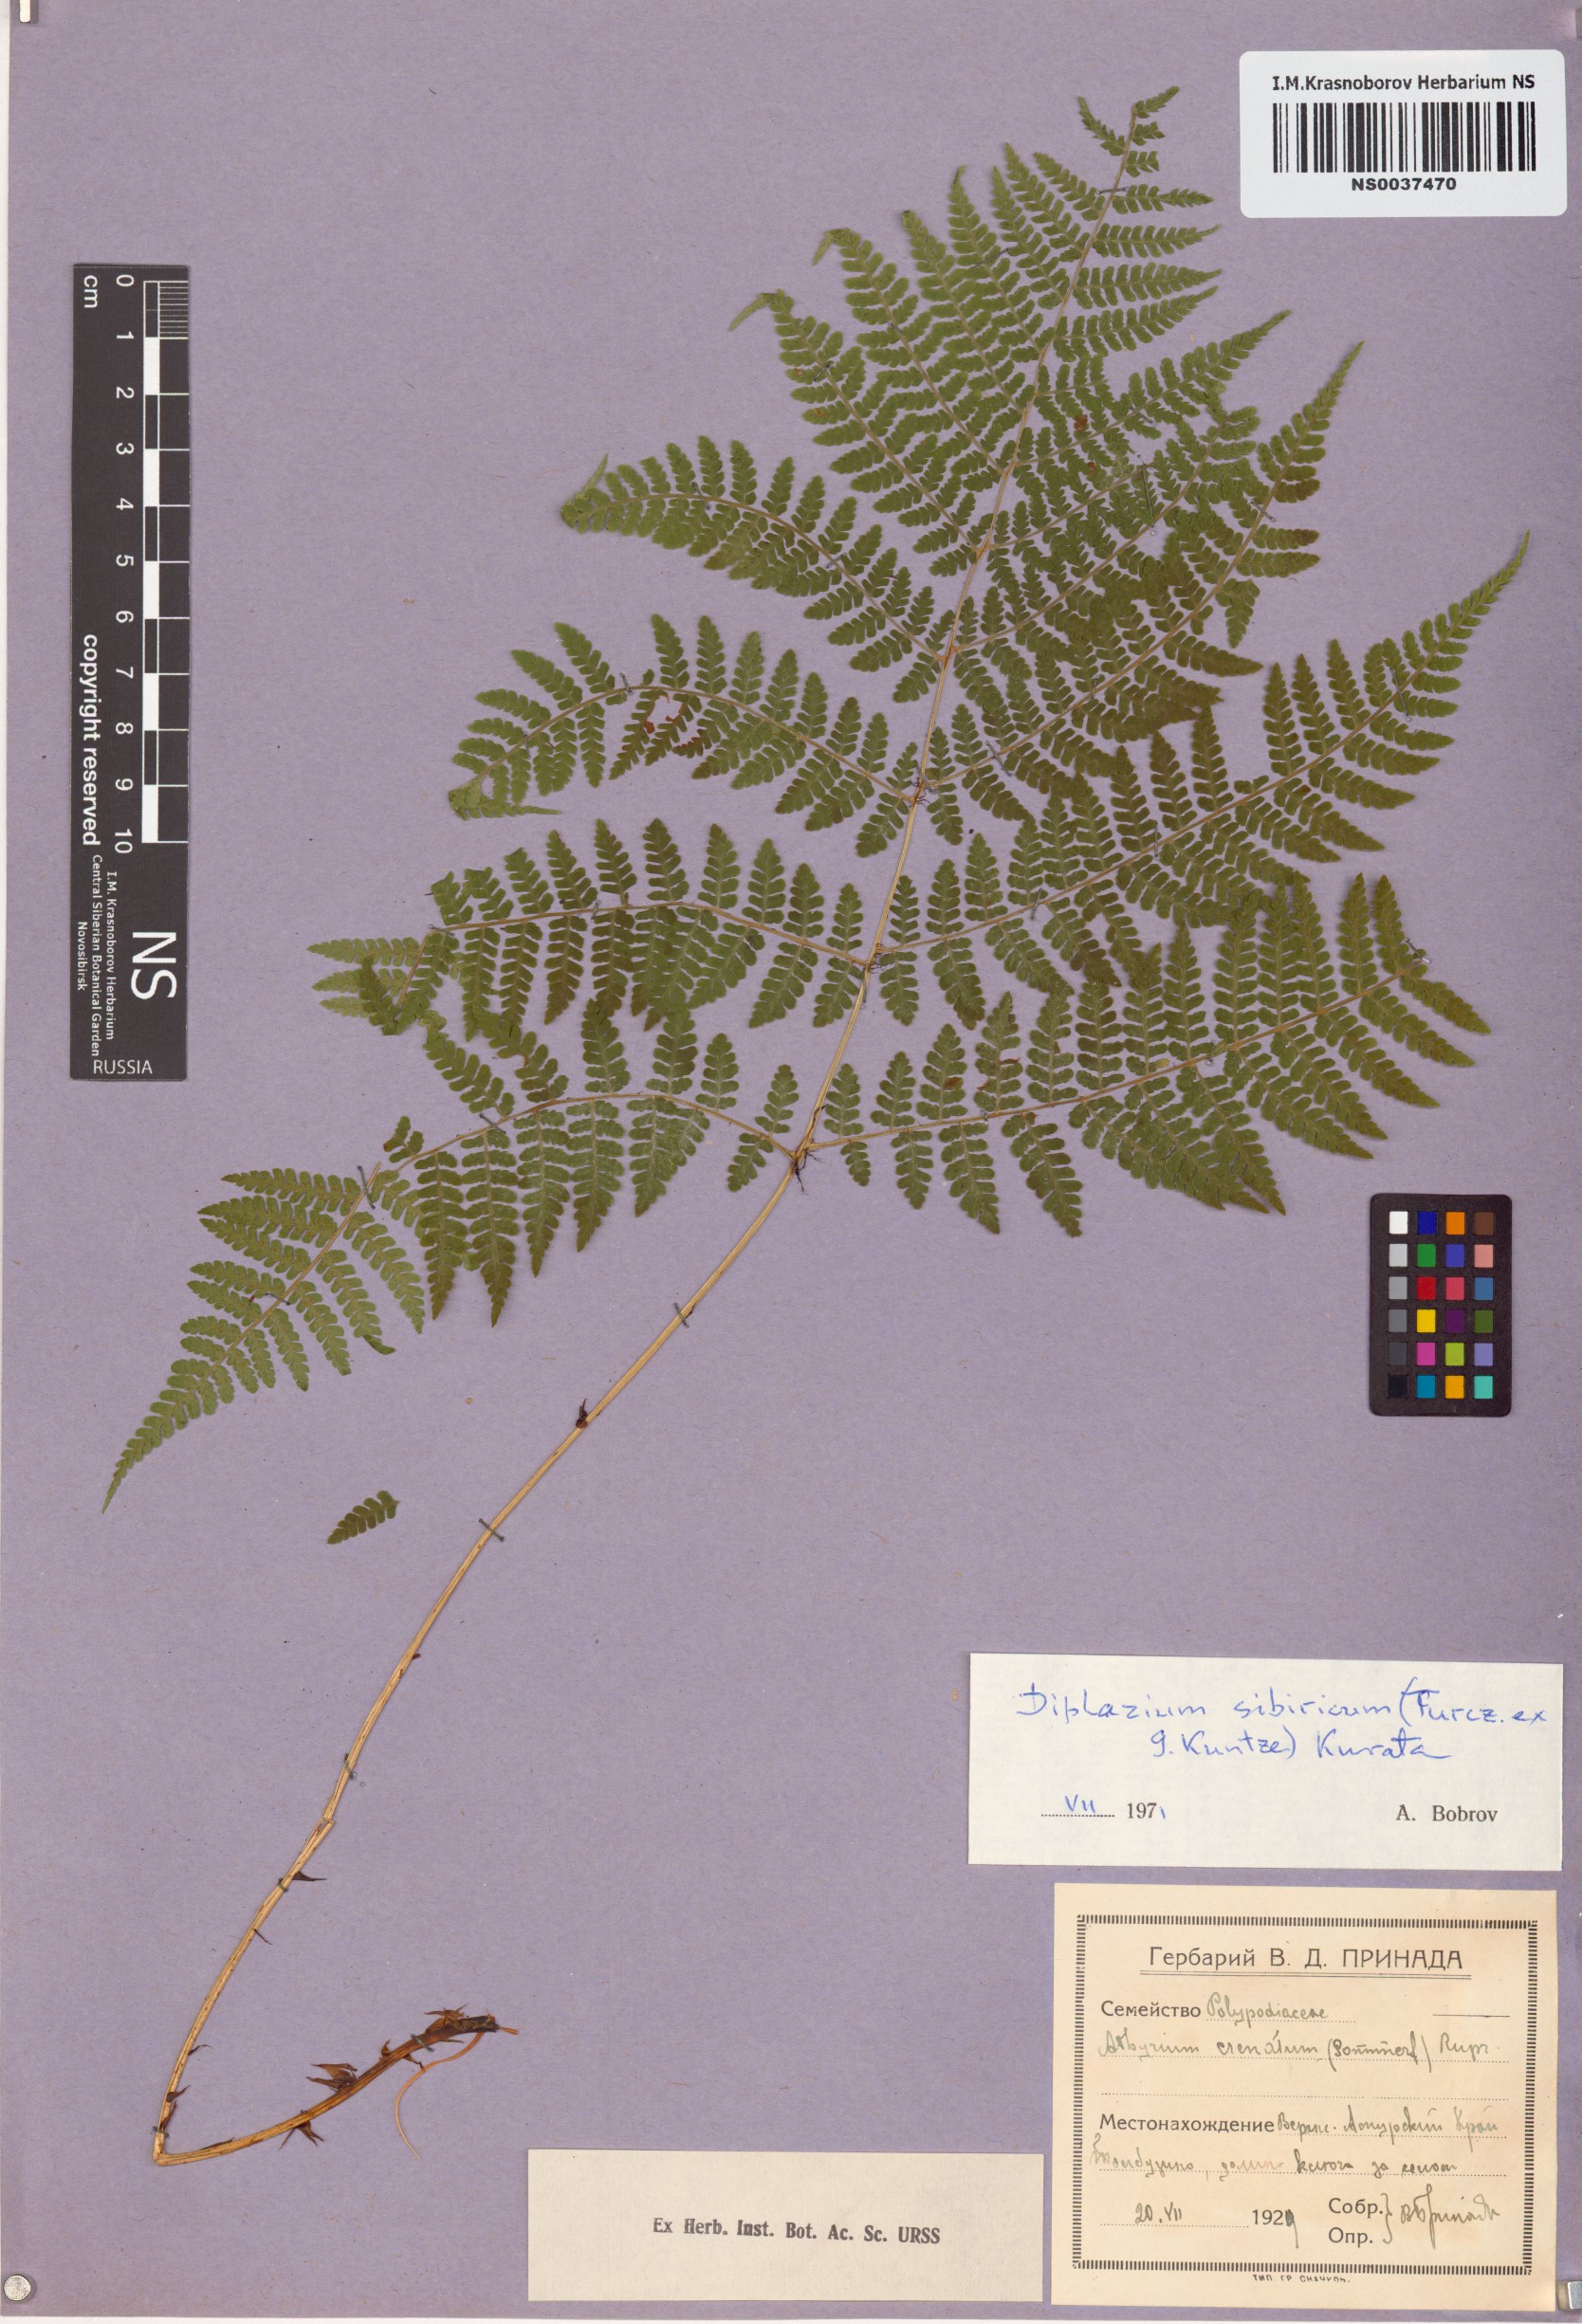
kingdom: Plantae
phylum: Tracheophyta
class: Polypodiopsida
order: Polypodiales
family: Athyriaceae
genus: Diplazium
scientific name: Diplazium sibiricum
